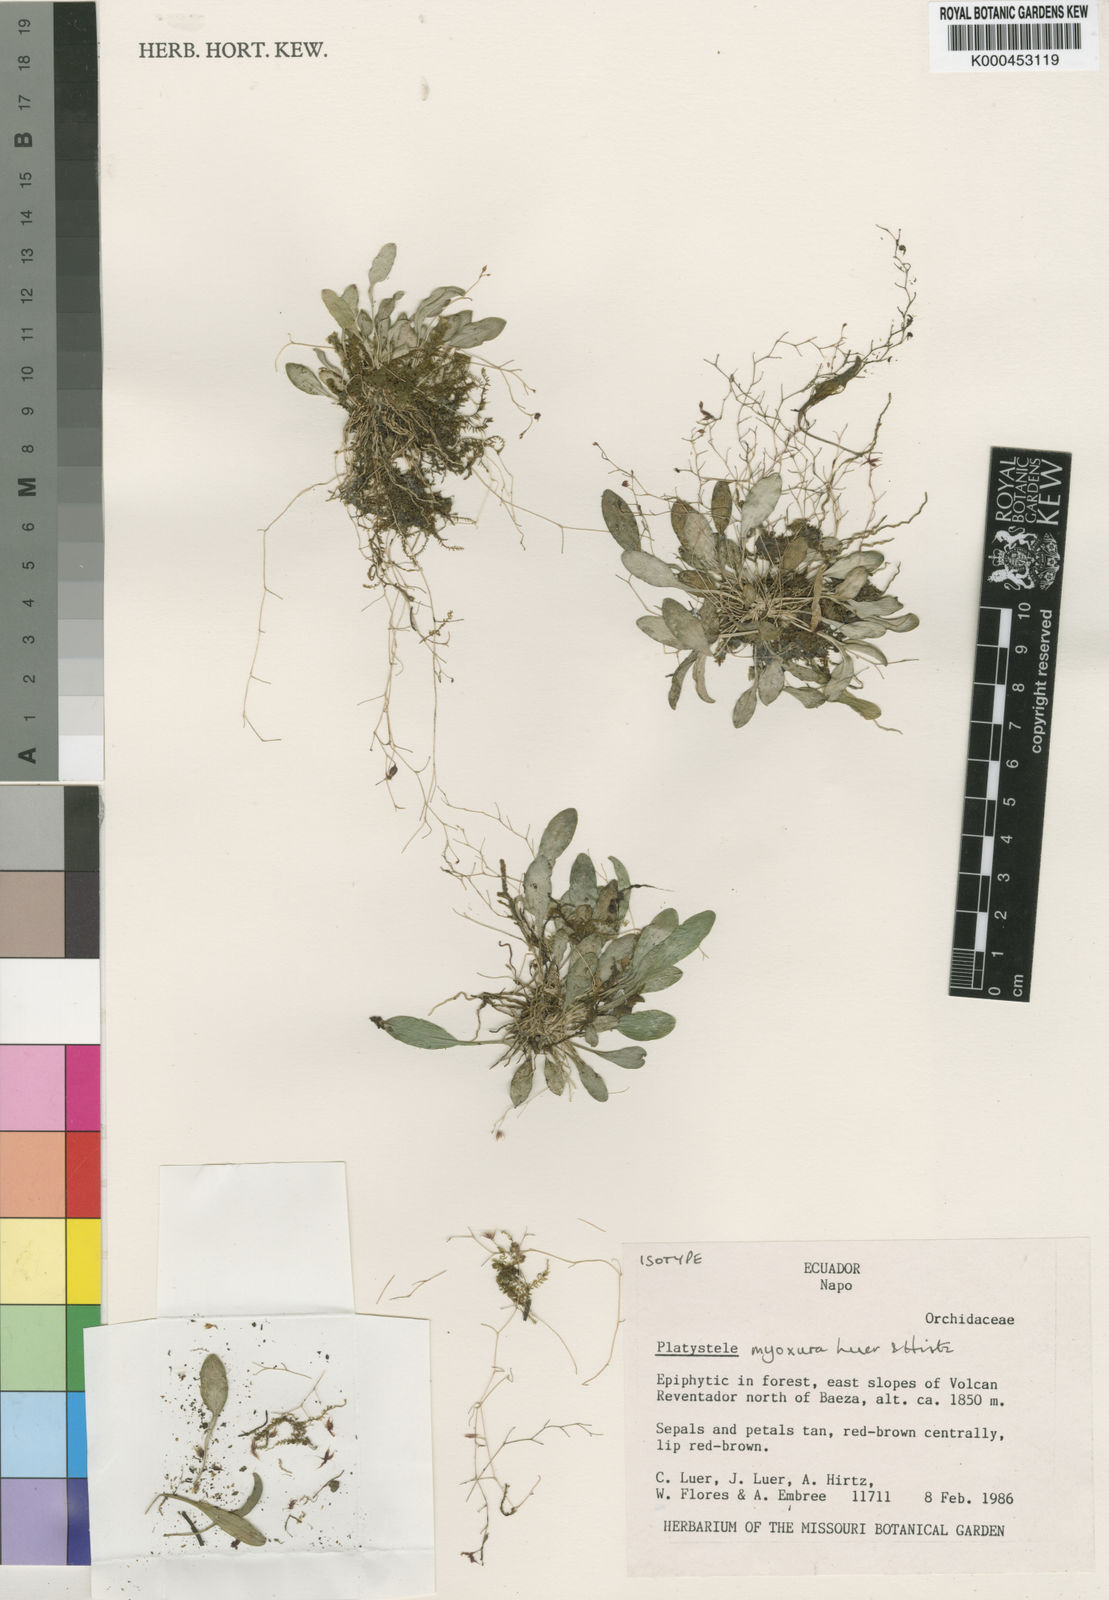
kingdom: Plantae
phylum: Tracheophyta
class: Liliopsida
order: Asparagales
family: Orchidaceae
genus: Platystele
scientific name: Platystele myoxura
